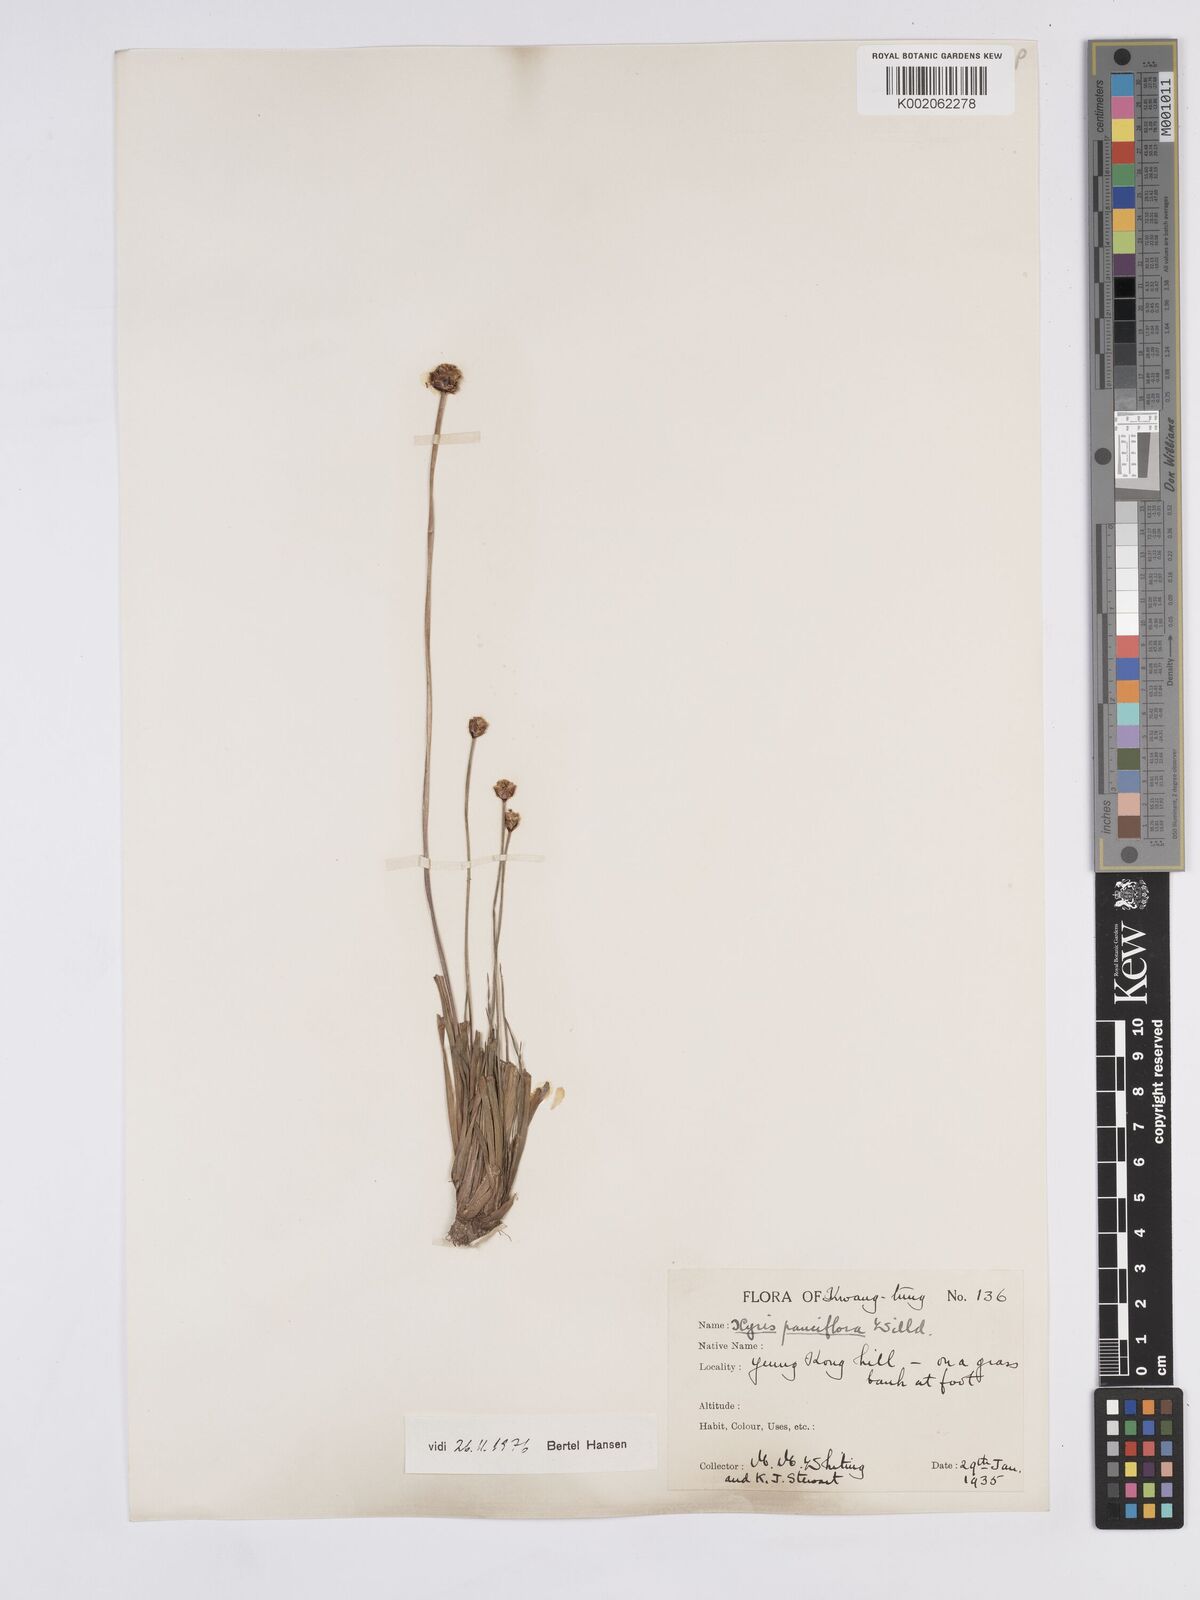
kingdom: Plantae
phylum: Tracheophyta
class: Liliopsida
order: Poales
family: Xyridaceae
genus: Xyris
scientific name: Xyris pauciflora
